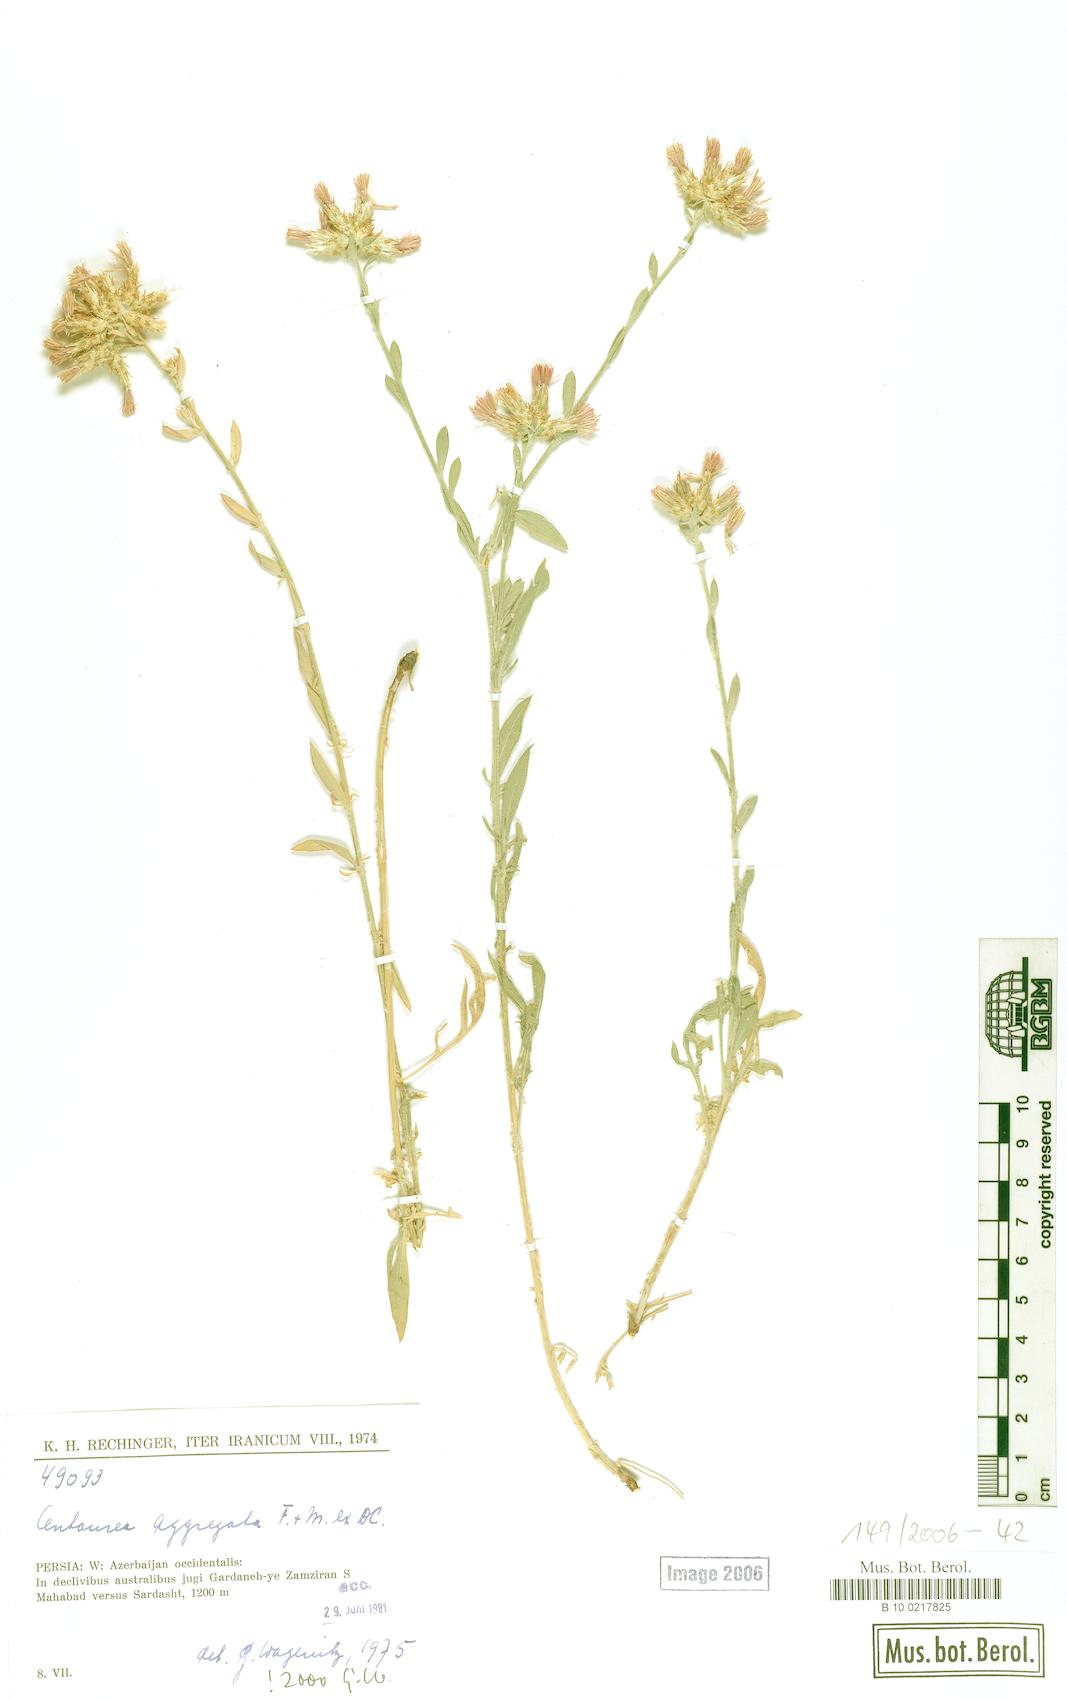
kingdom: Plantae
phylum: Tracheophyta
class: Magnoliopsida
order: Asterales
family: Asteraceae
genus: Centaurea
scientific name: Centaurea aggregata
